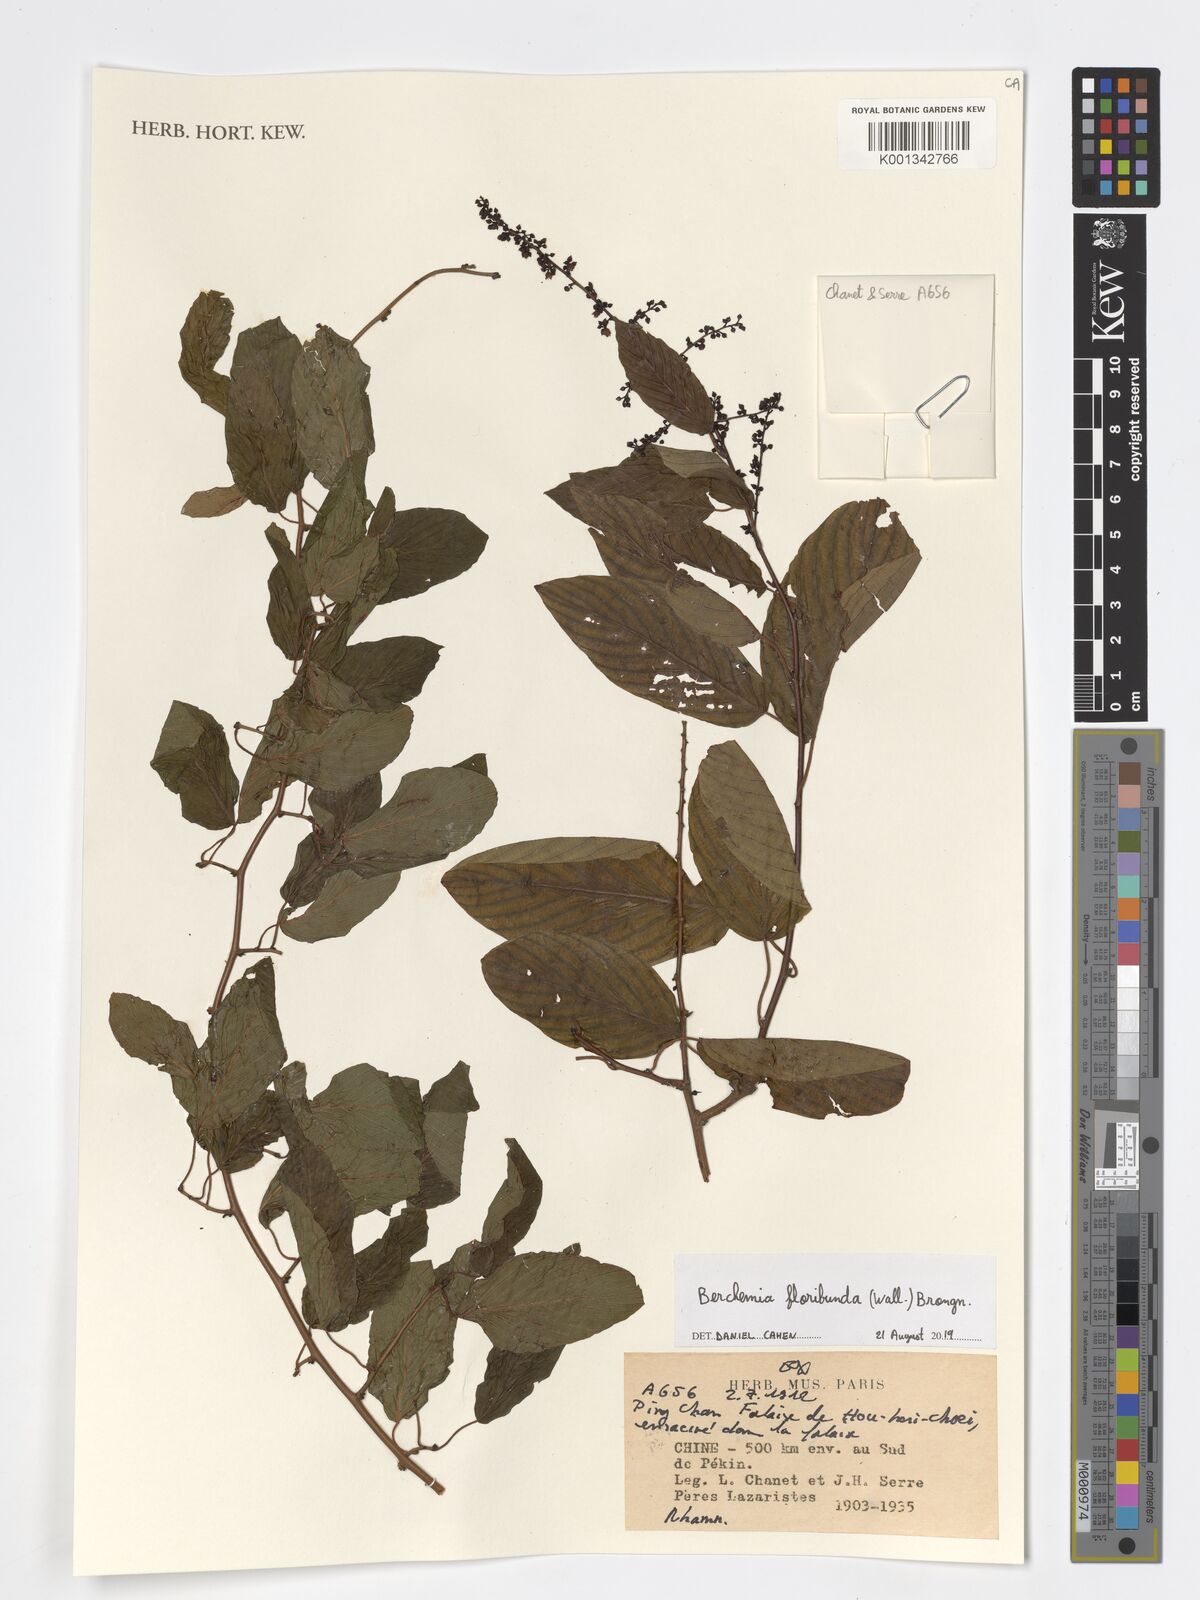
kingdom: Plantae
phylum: Tracheophyta
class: Magnoliopsida
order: Rosales
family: Rhamnaceae
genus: Berchemia
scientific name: Berchemia floribunda
